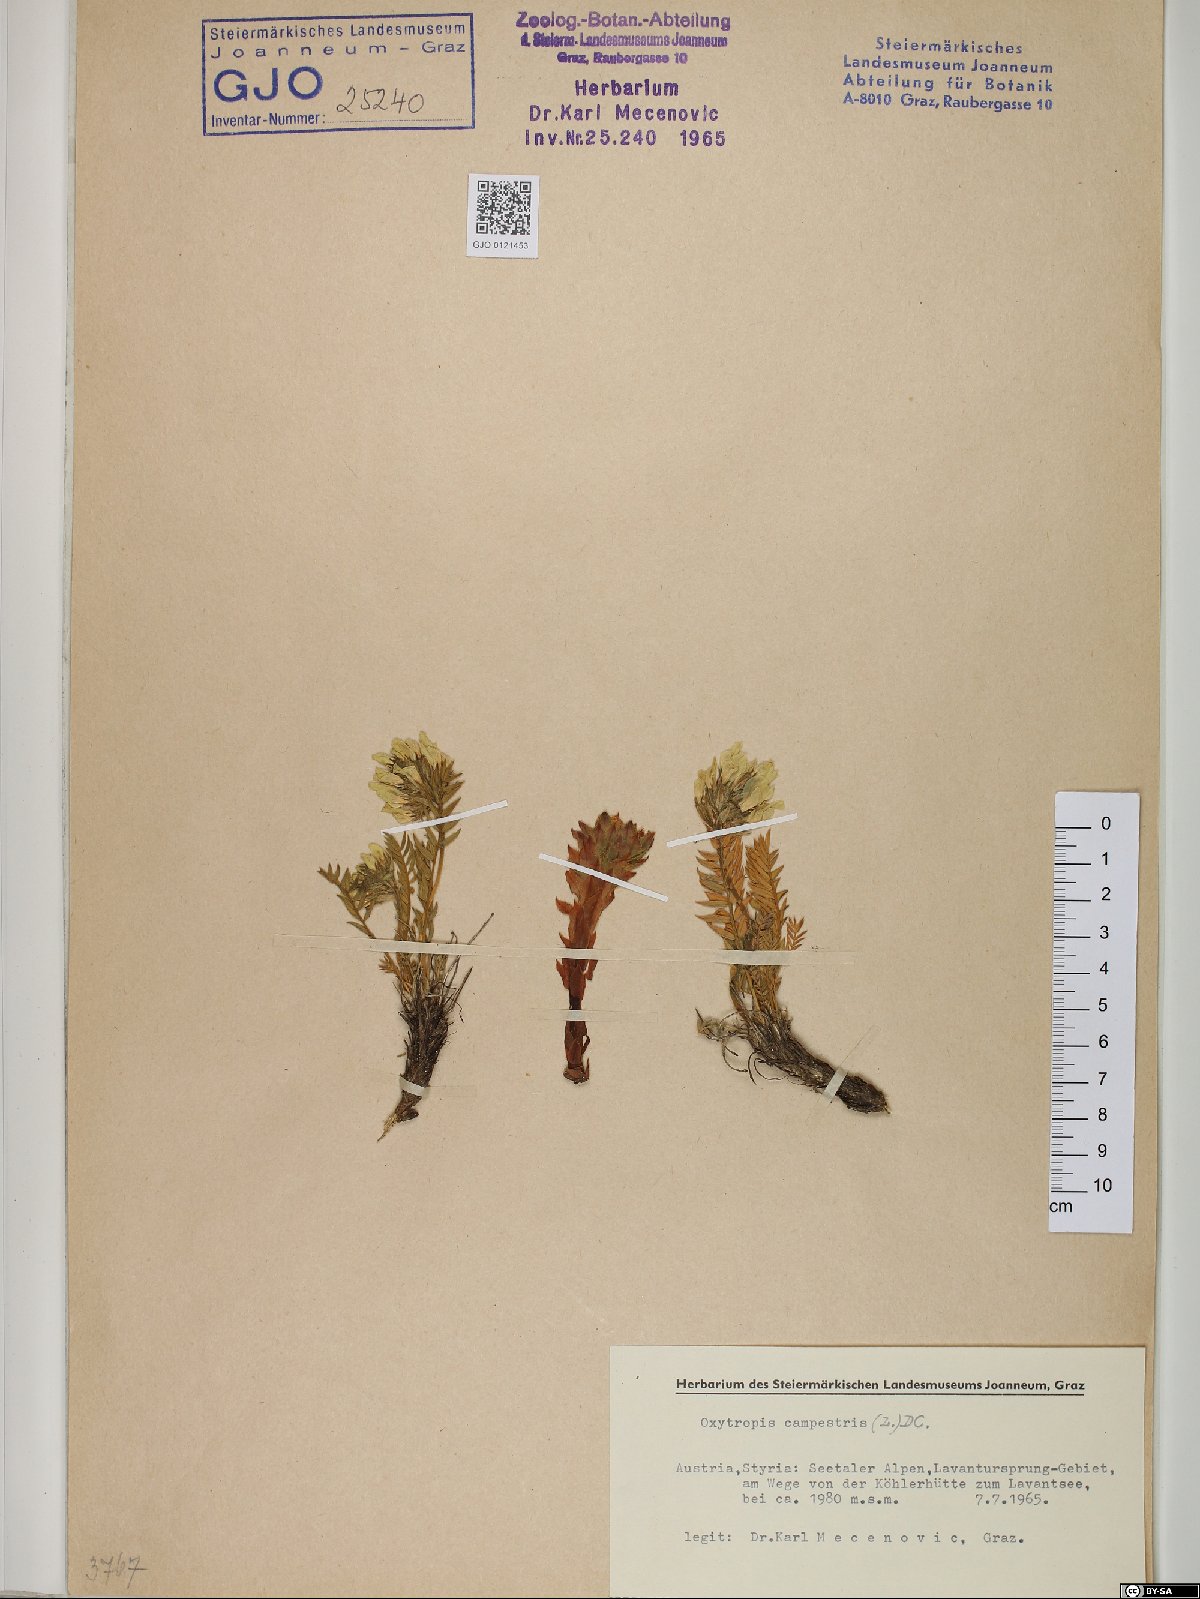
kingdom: Plantae
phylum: Tracheophyta
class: Magnoliopsida
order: Fabales
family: Fabaceae
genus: Oxytropis
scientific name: Oxytropis campestris
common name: Field locoweed
